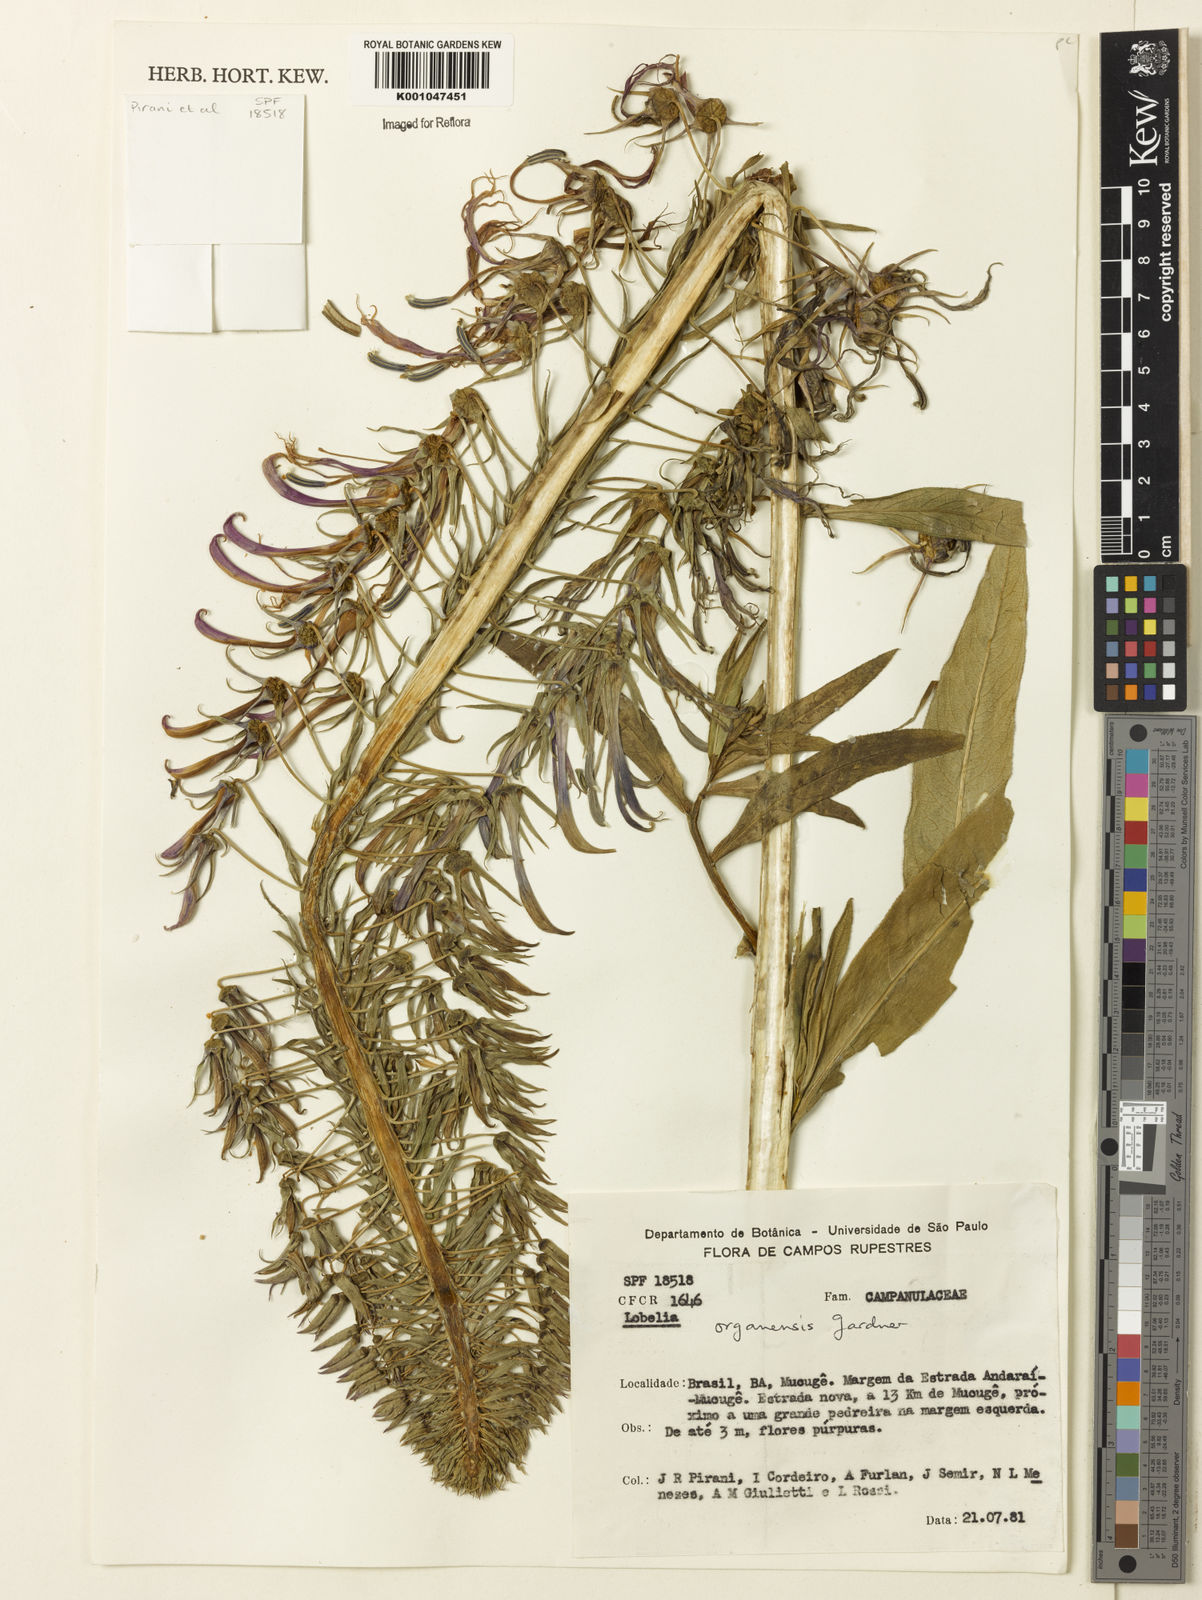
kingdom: Plantae
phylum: Tracheophyta
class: Magnoliopsida
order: Asterales
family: Campanulaceae
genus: Lobelia
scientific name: Lobelia organensis
